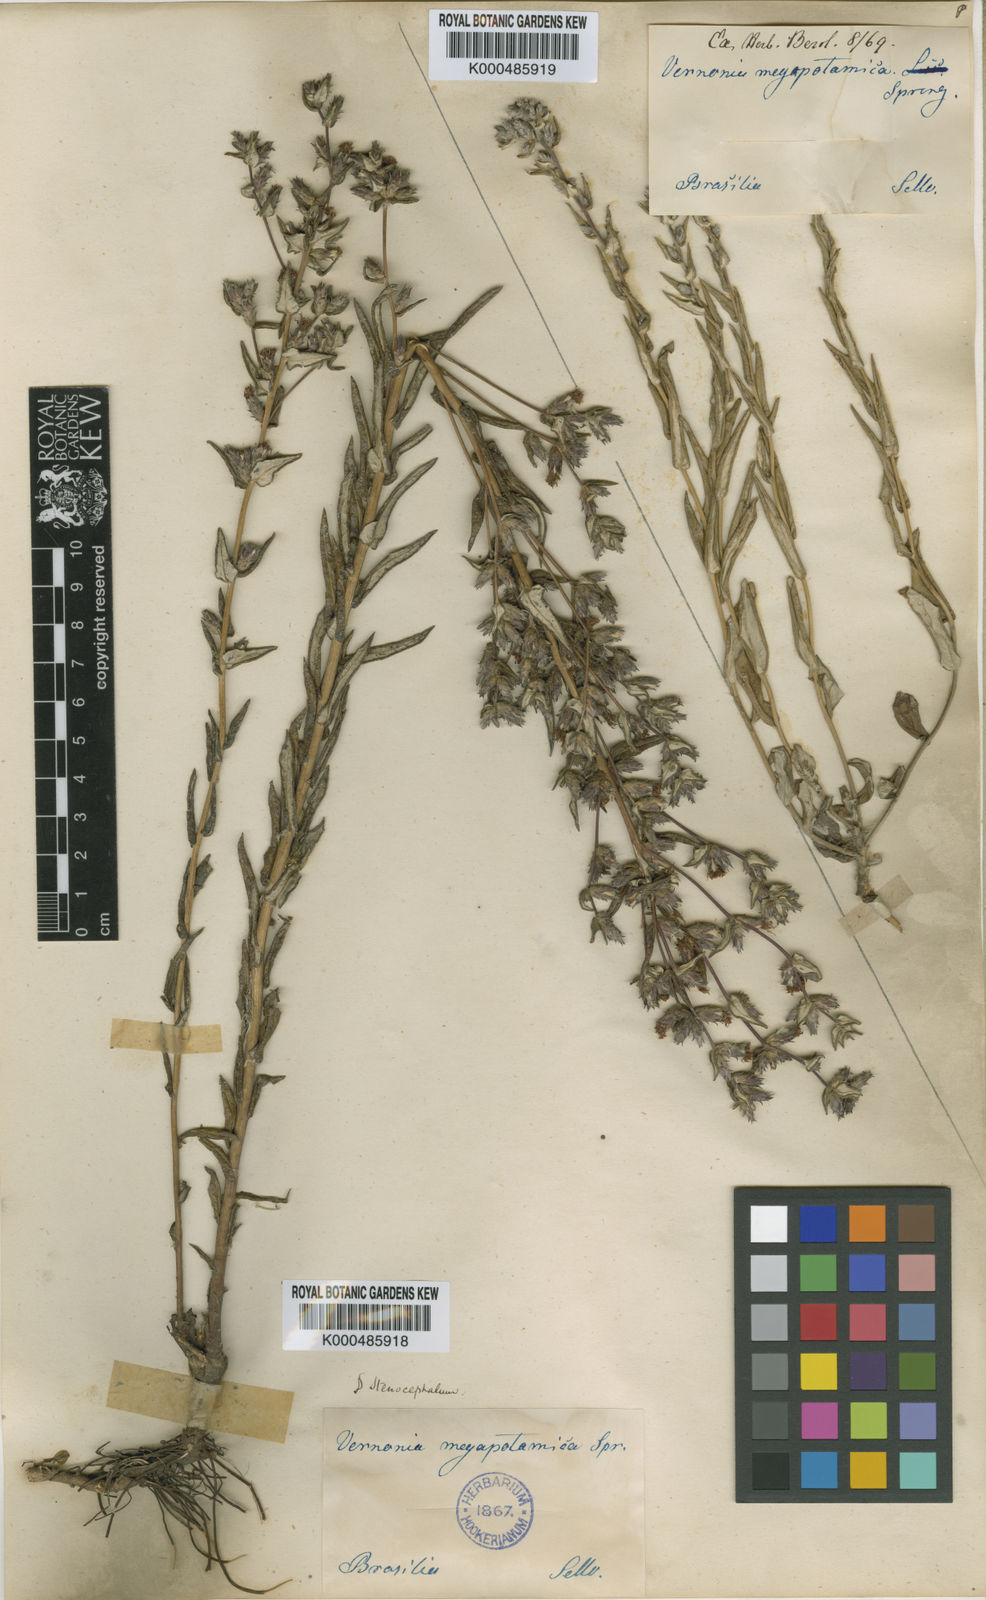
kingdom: Plantae
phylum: Tracheophyta
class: Magnoliopsida
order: Asterales
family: Asteraceae
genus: Stenocephalum
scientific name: Stenocephalum megapotamicum
